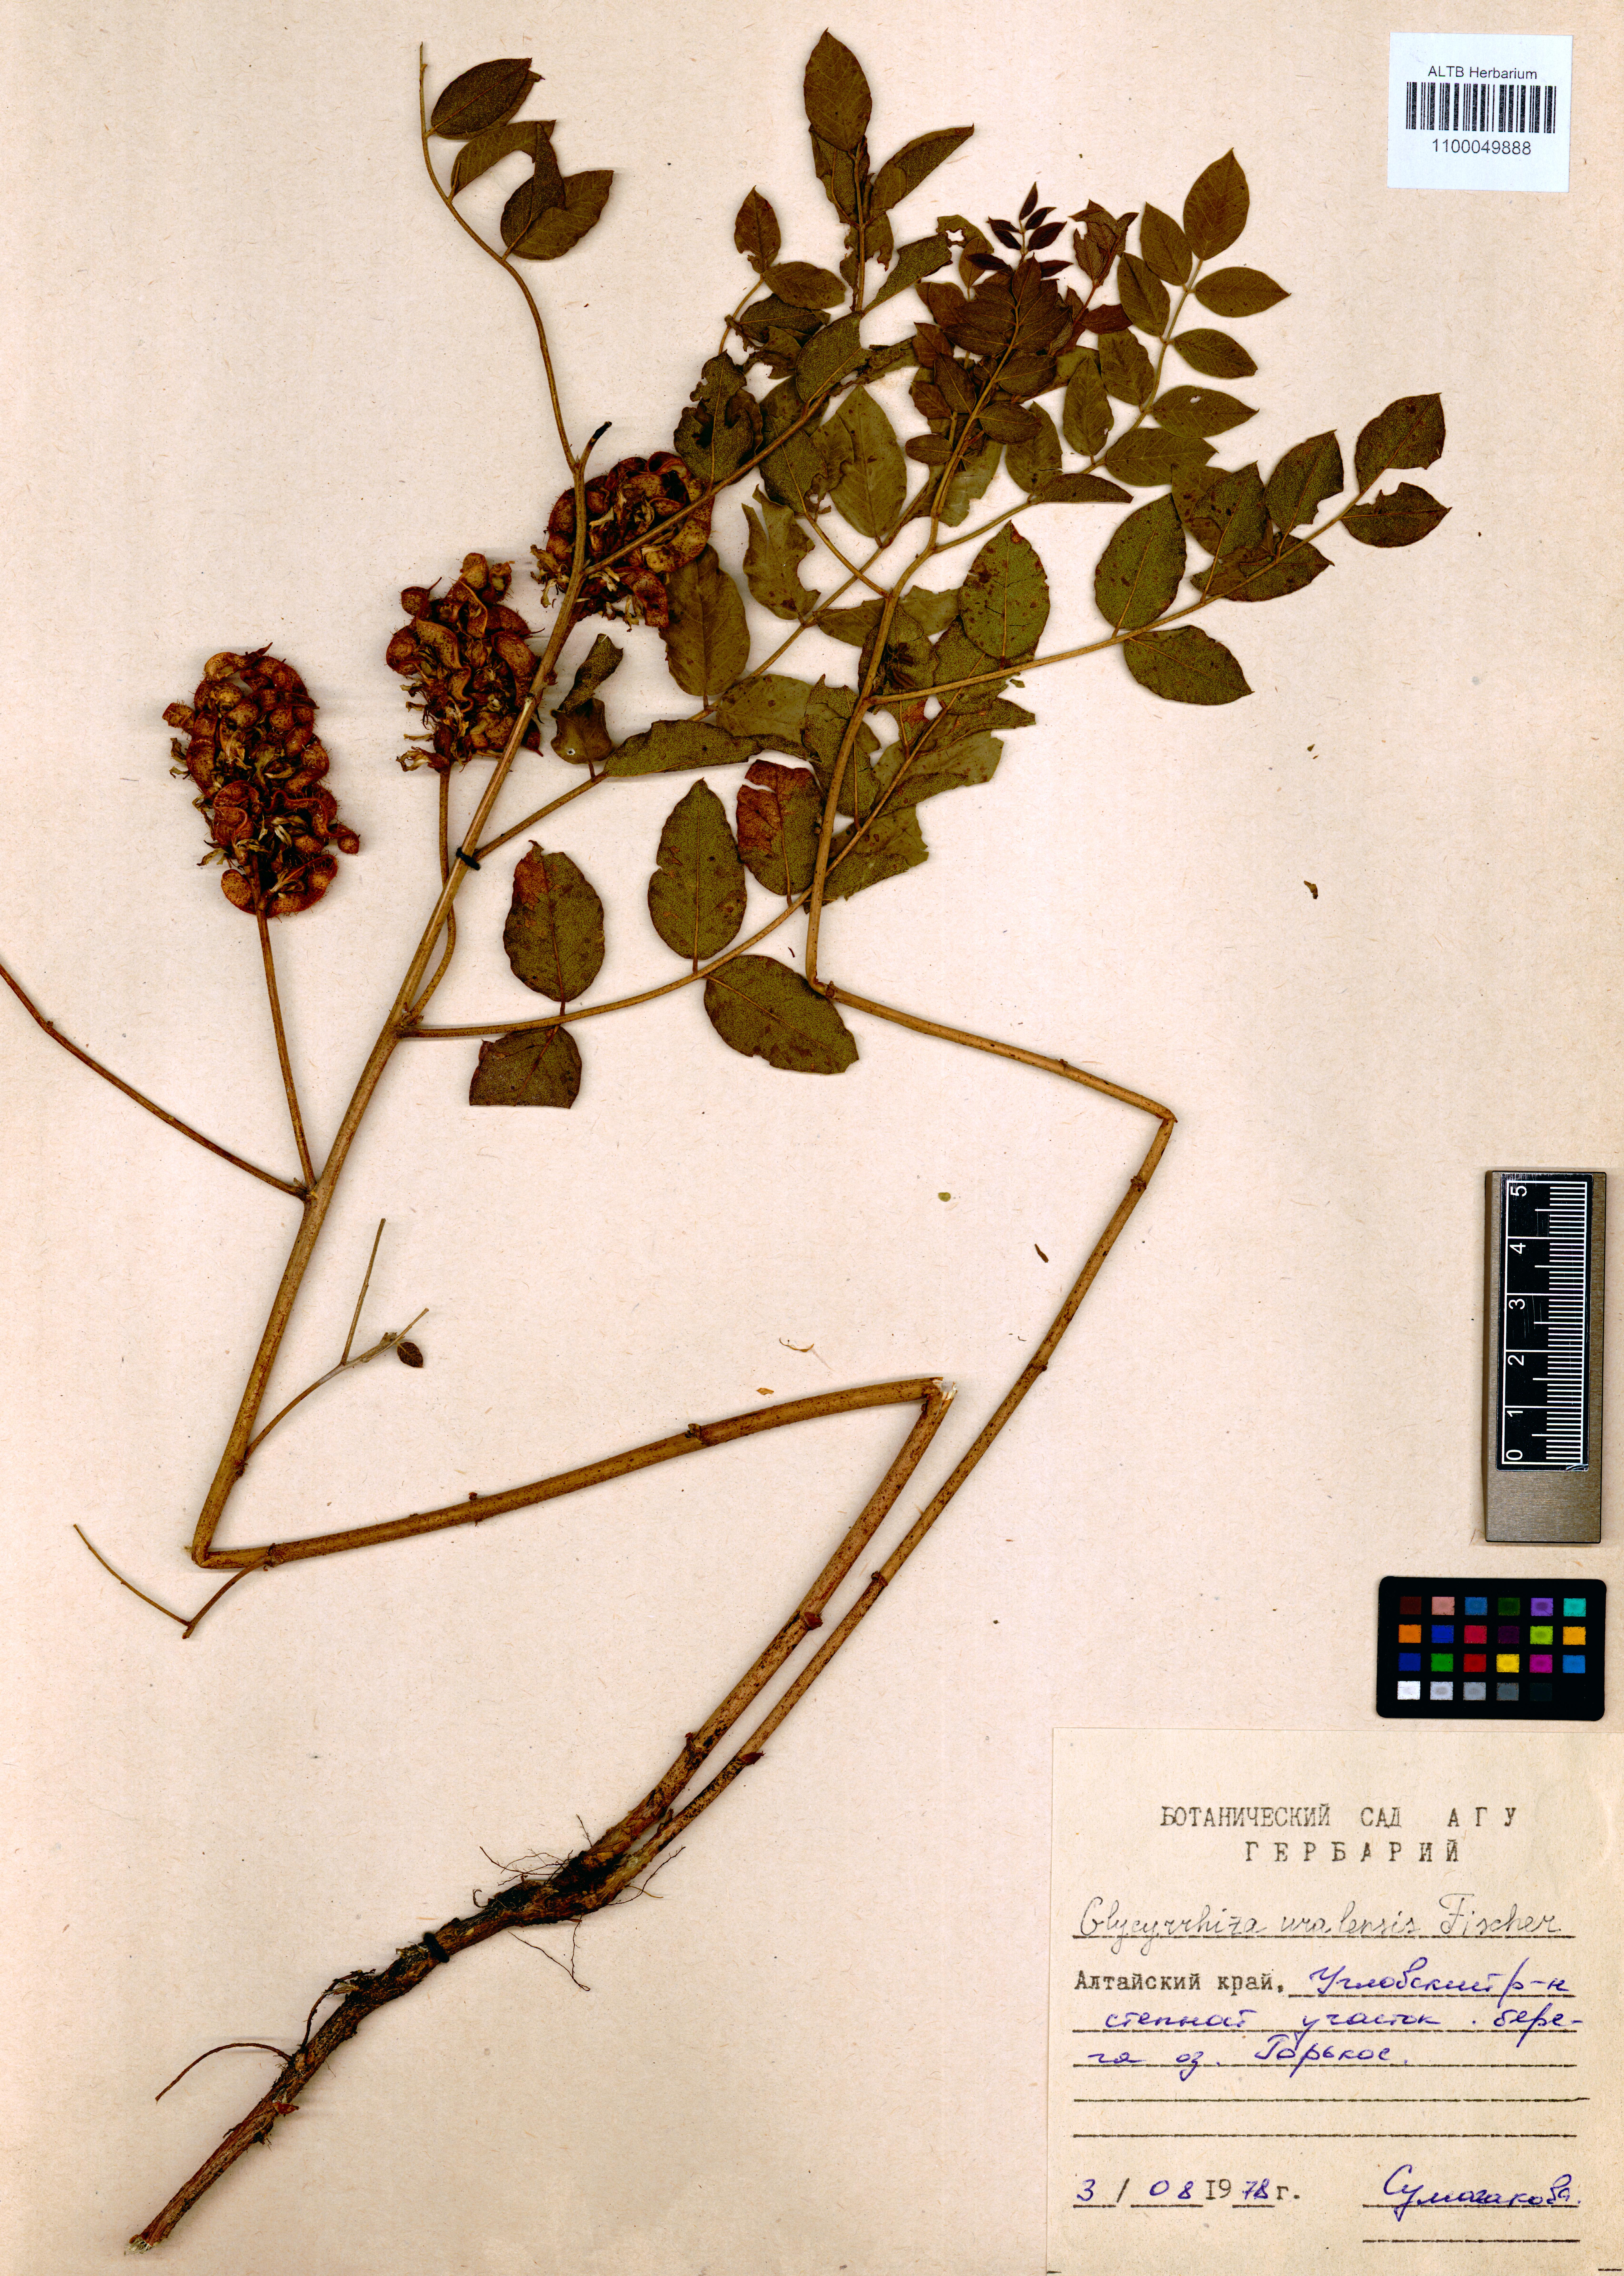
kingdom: Plantae
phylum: Tracheophyta
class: Magnoliopsida
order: Fabales
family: Fabaceae
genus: Glycyrrhiza
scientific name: Glycyrrhiza uralensis
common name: Chinese licorice
